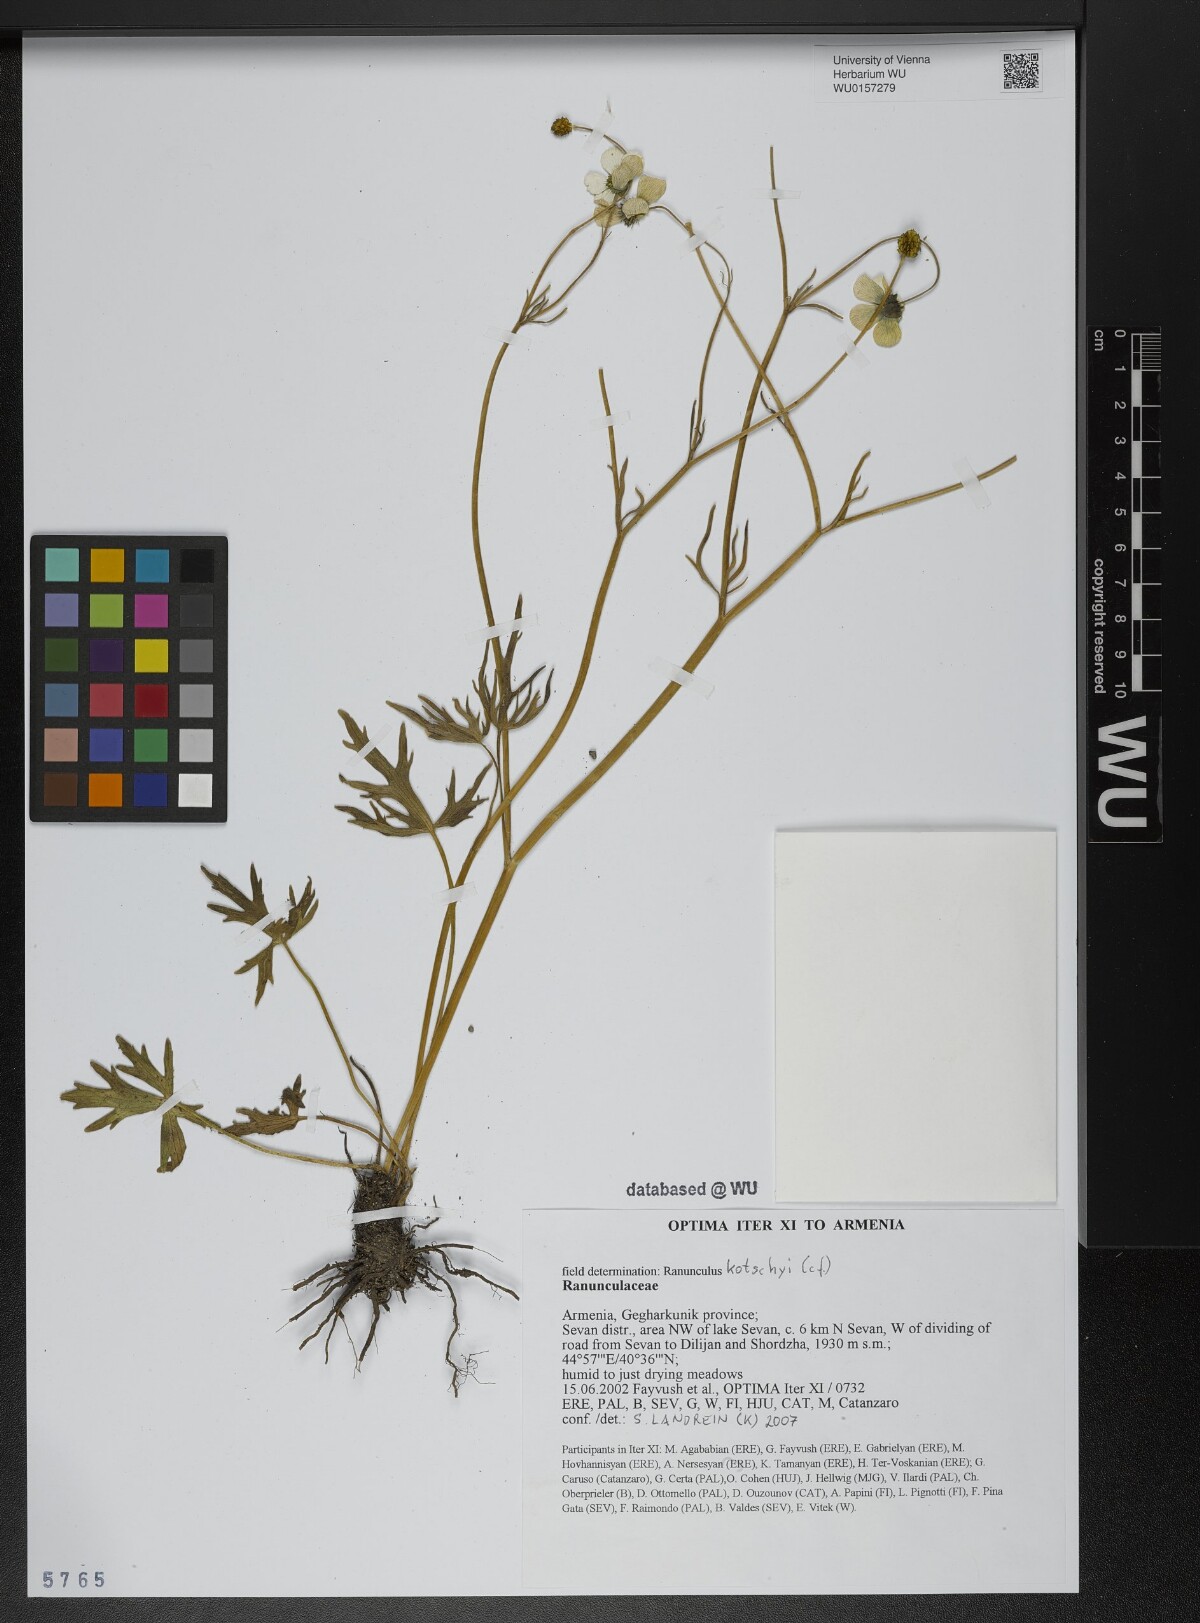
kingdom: Plantae
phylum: Tracheophyta
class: Magnoliopsida
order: Ranunculales
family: Ranunculaceae
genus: Ranunculus
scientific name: Ranunculus kotschyi
